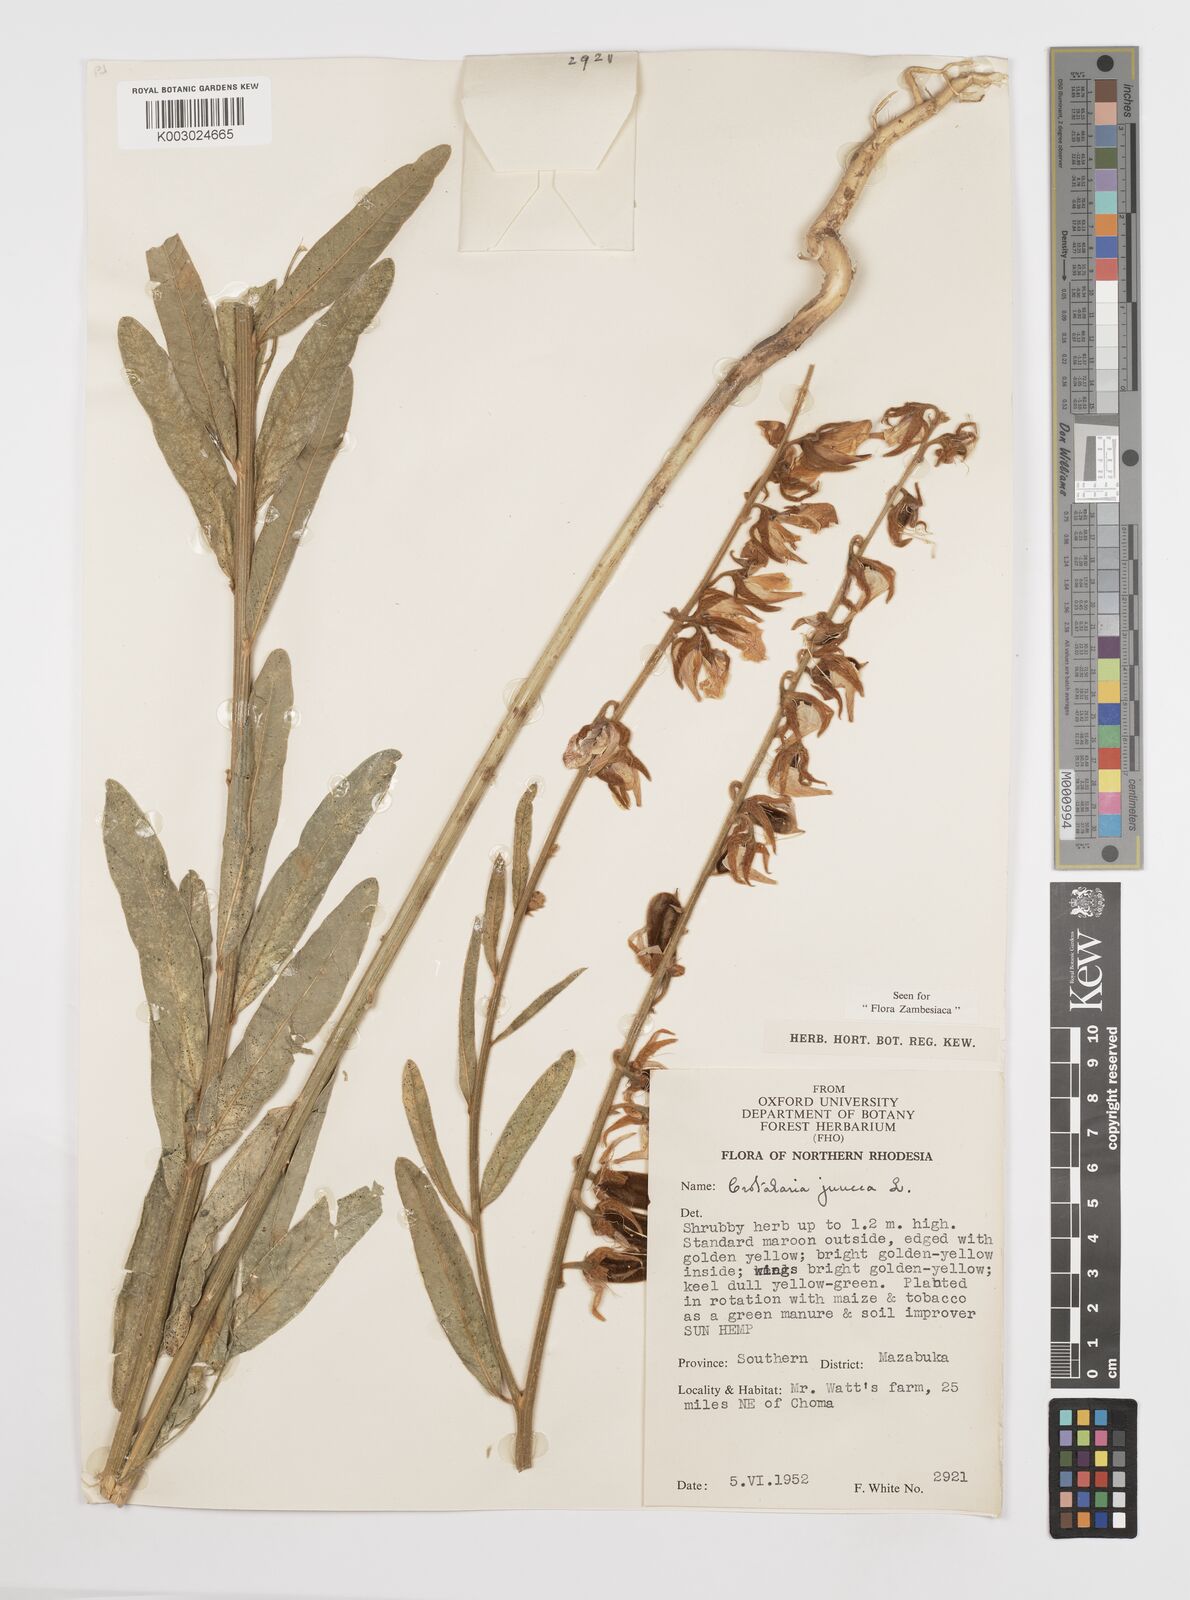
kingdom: Plantae
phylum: Tracheophyta
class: Magnoliopsida
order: Fabales
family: Fabaceae
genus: Crotalaria
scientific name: Crotalaria juncea
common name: Sunn hemp
